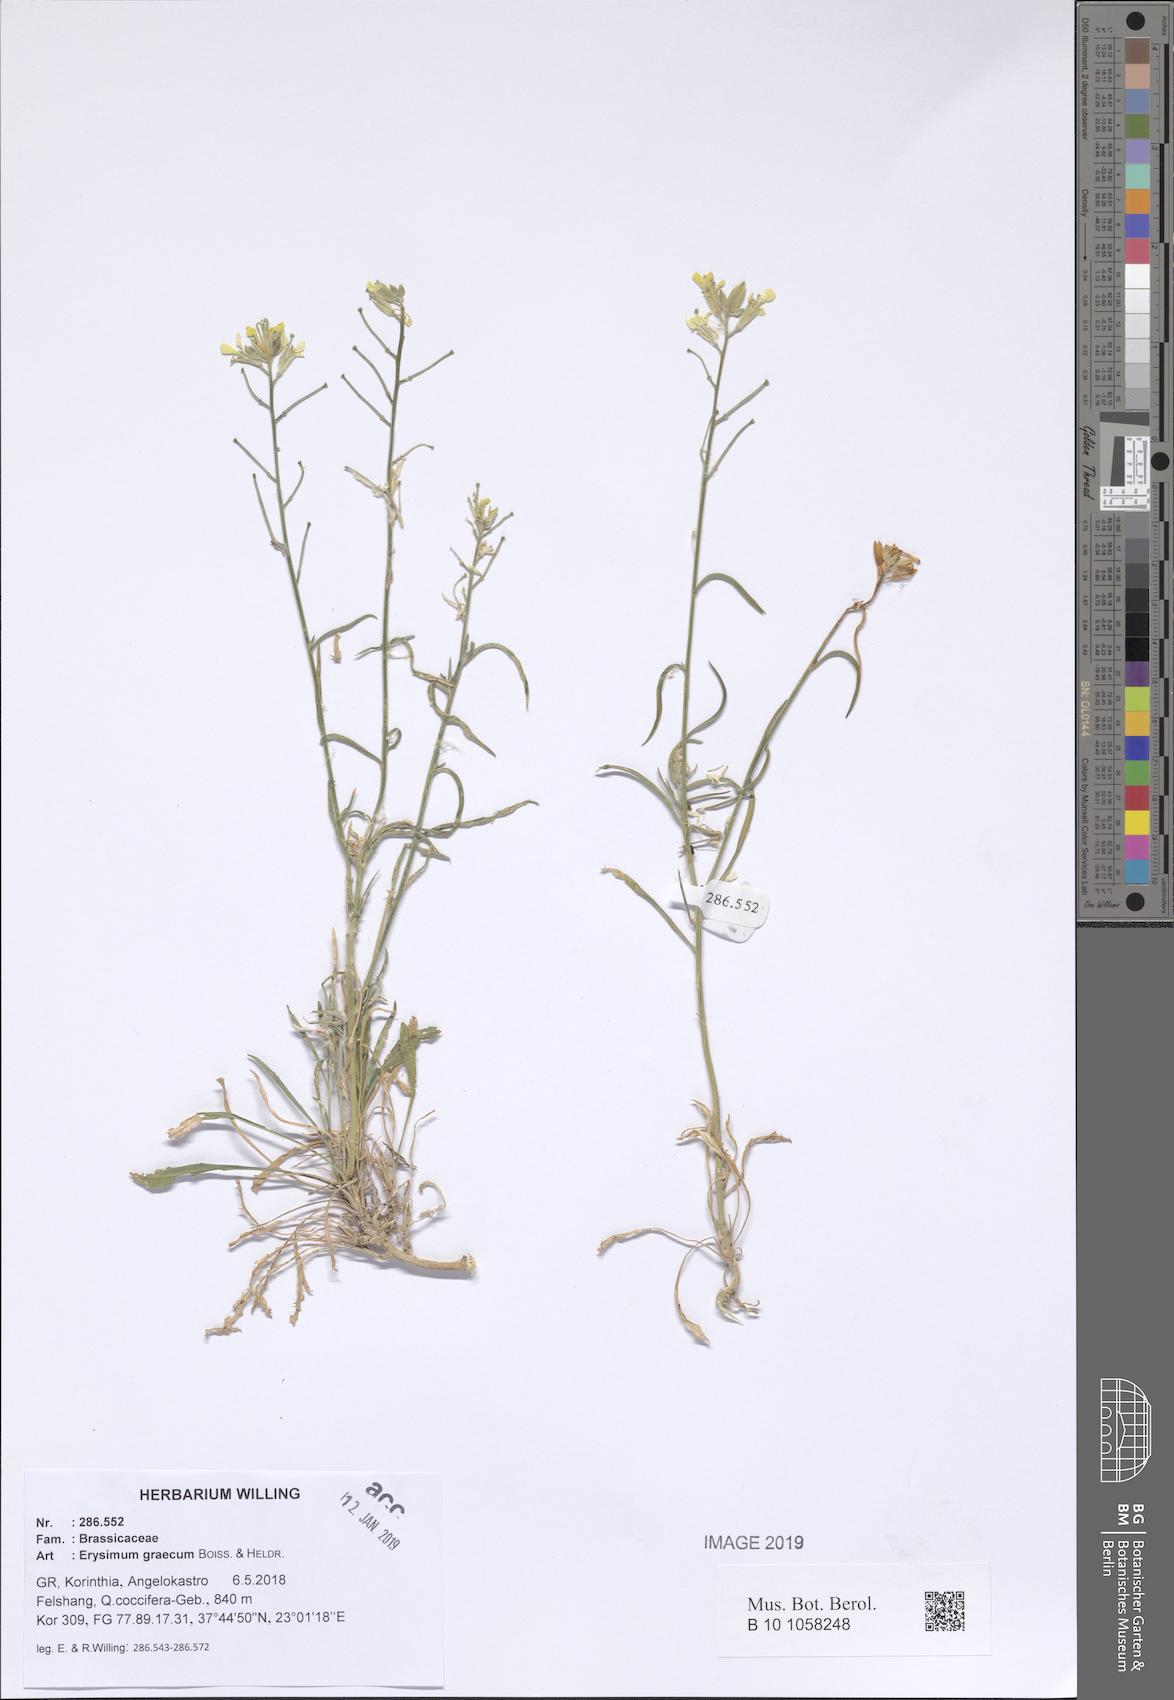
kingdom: Plantae
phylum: Tracheophyta
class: Magnoliopsida
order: Brassicales
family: Brassicaceae
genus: Erysimum
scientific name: Erysimum graecum
